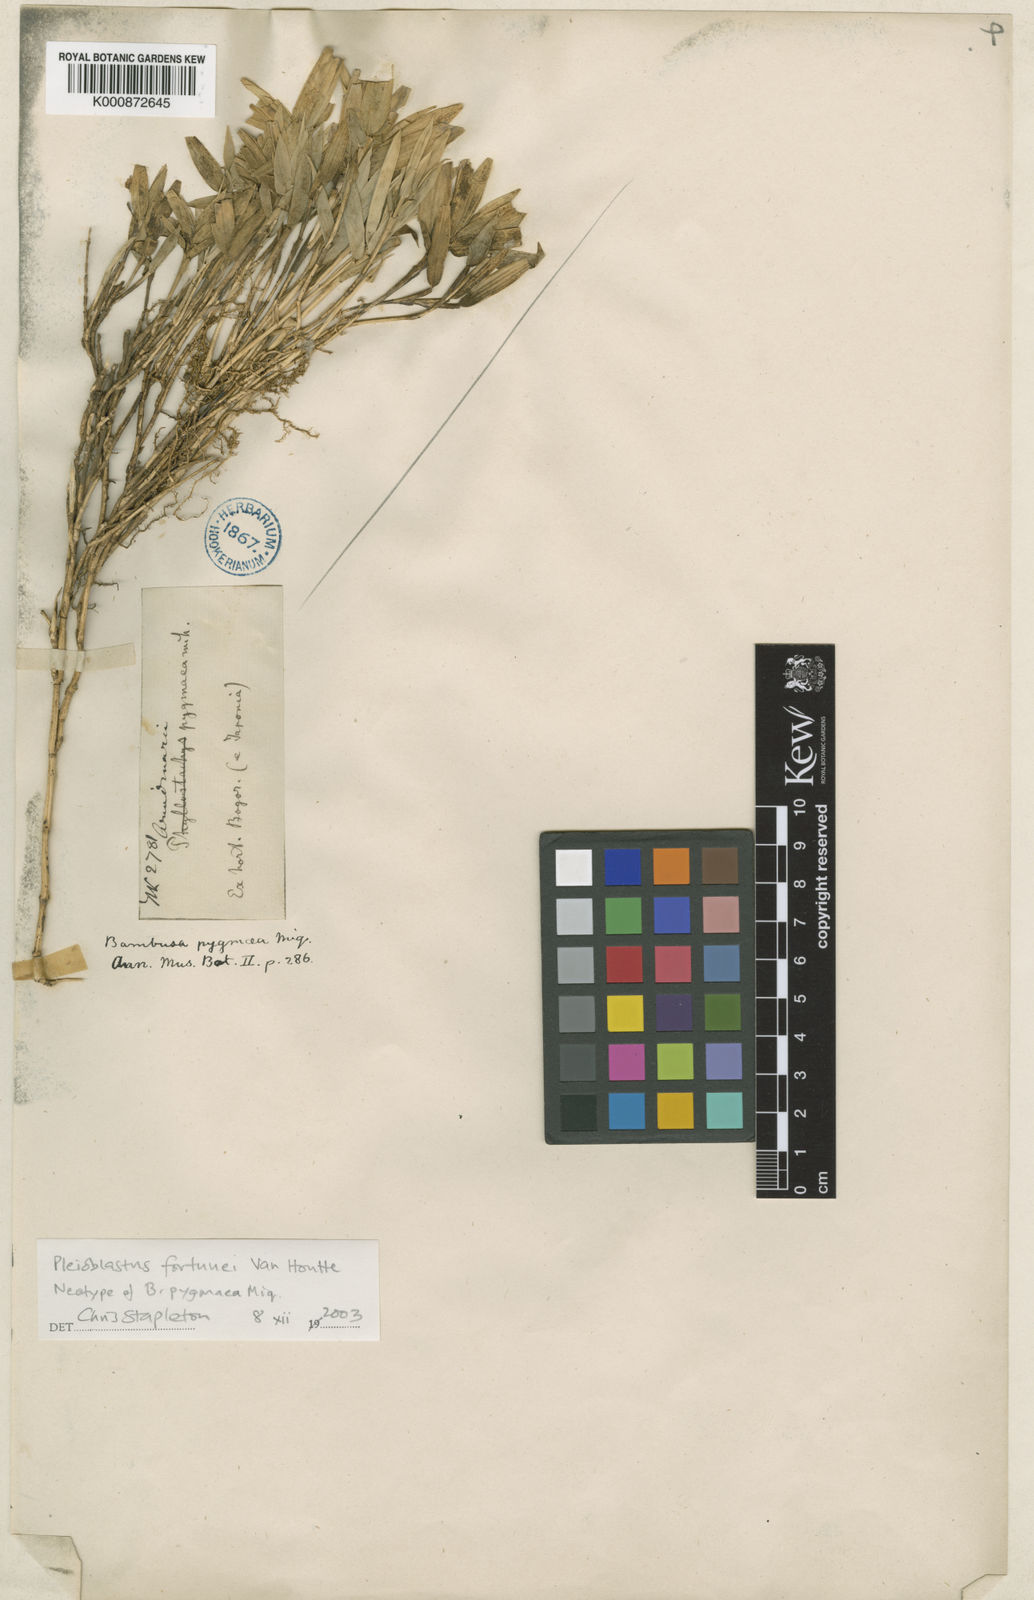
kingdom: Plantae
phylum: Tracheophyta
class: Liliopsida
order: Poales
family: Poaceae
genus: Arundinaria
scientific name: Arundinaria
